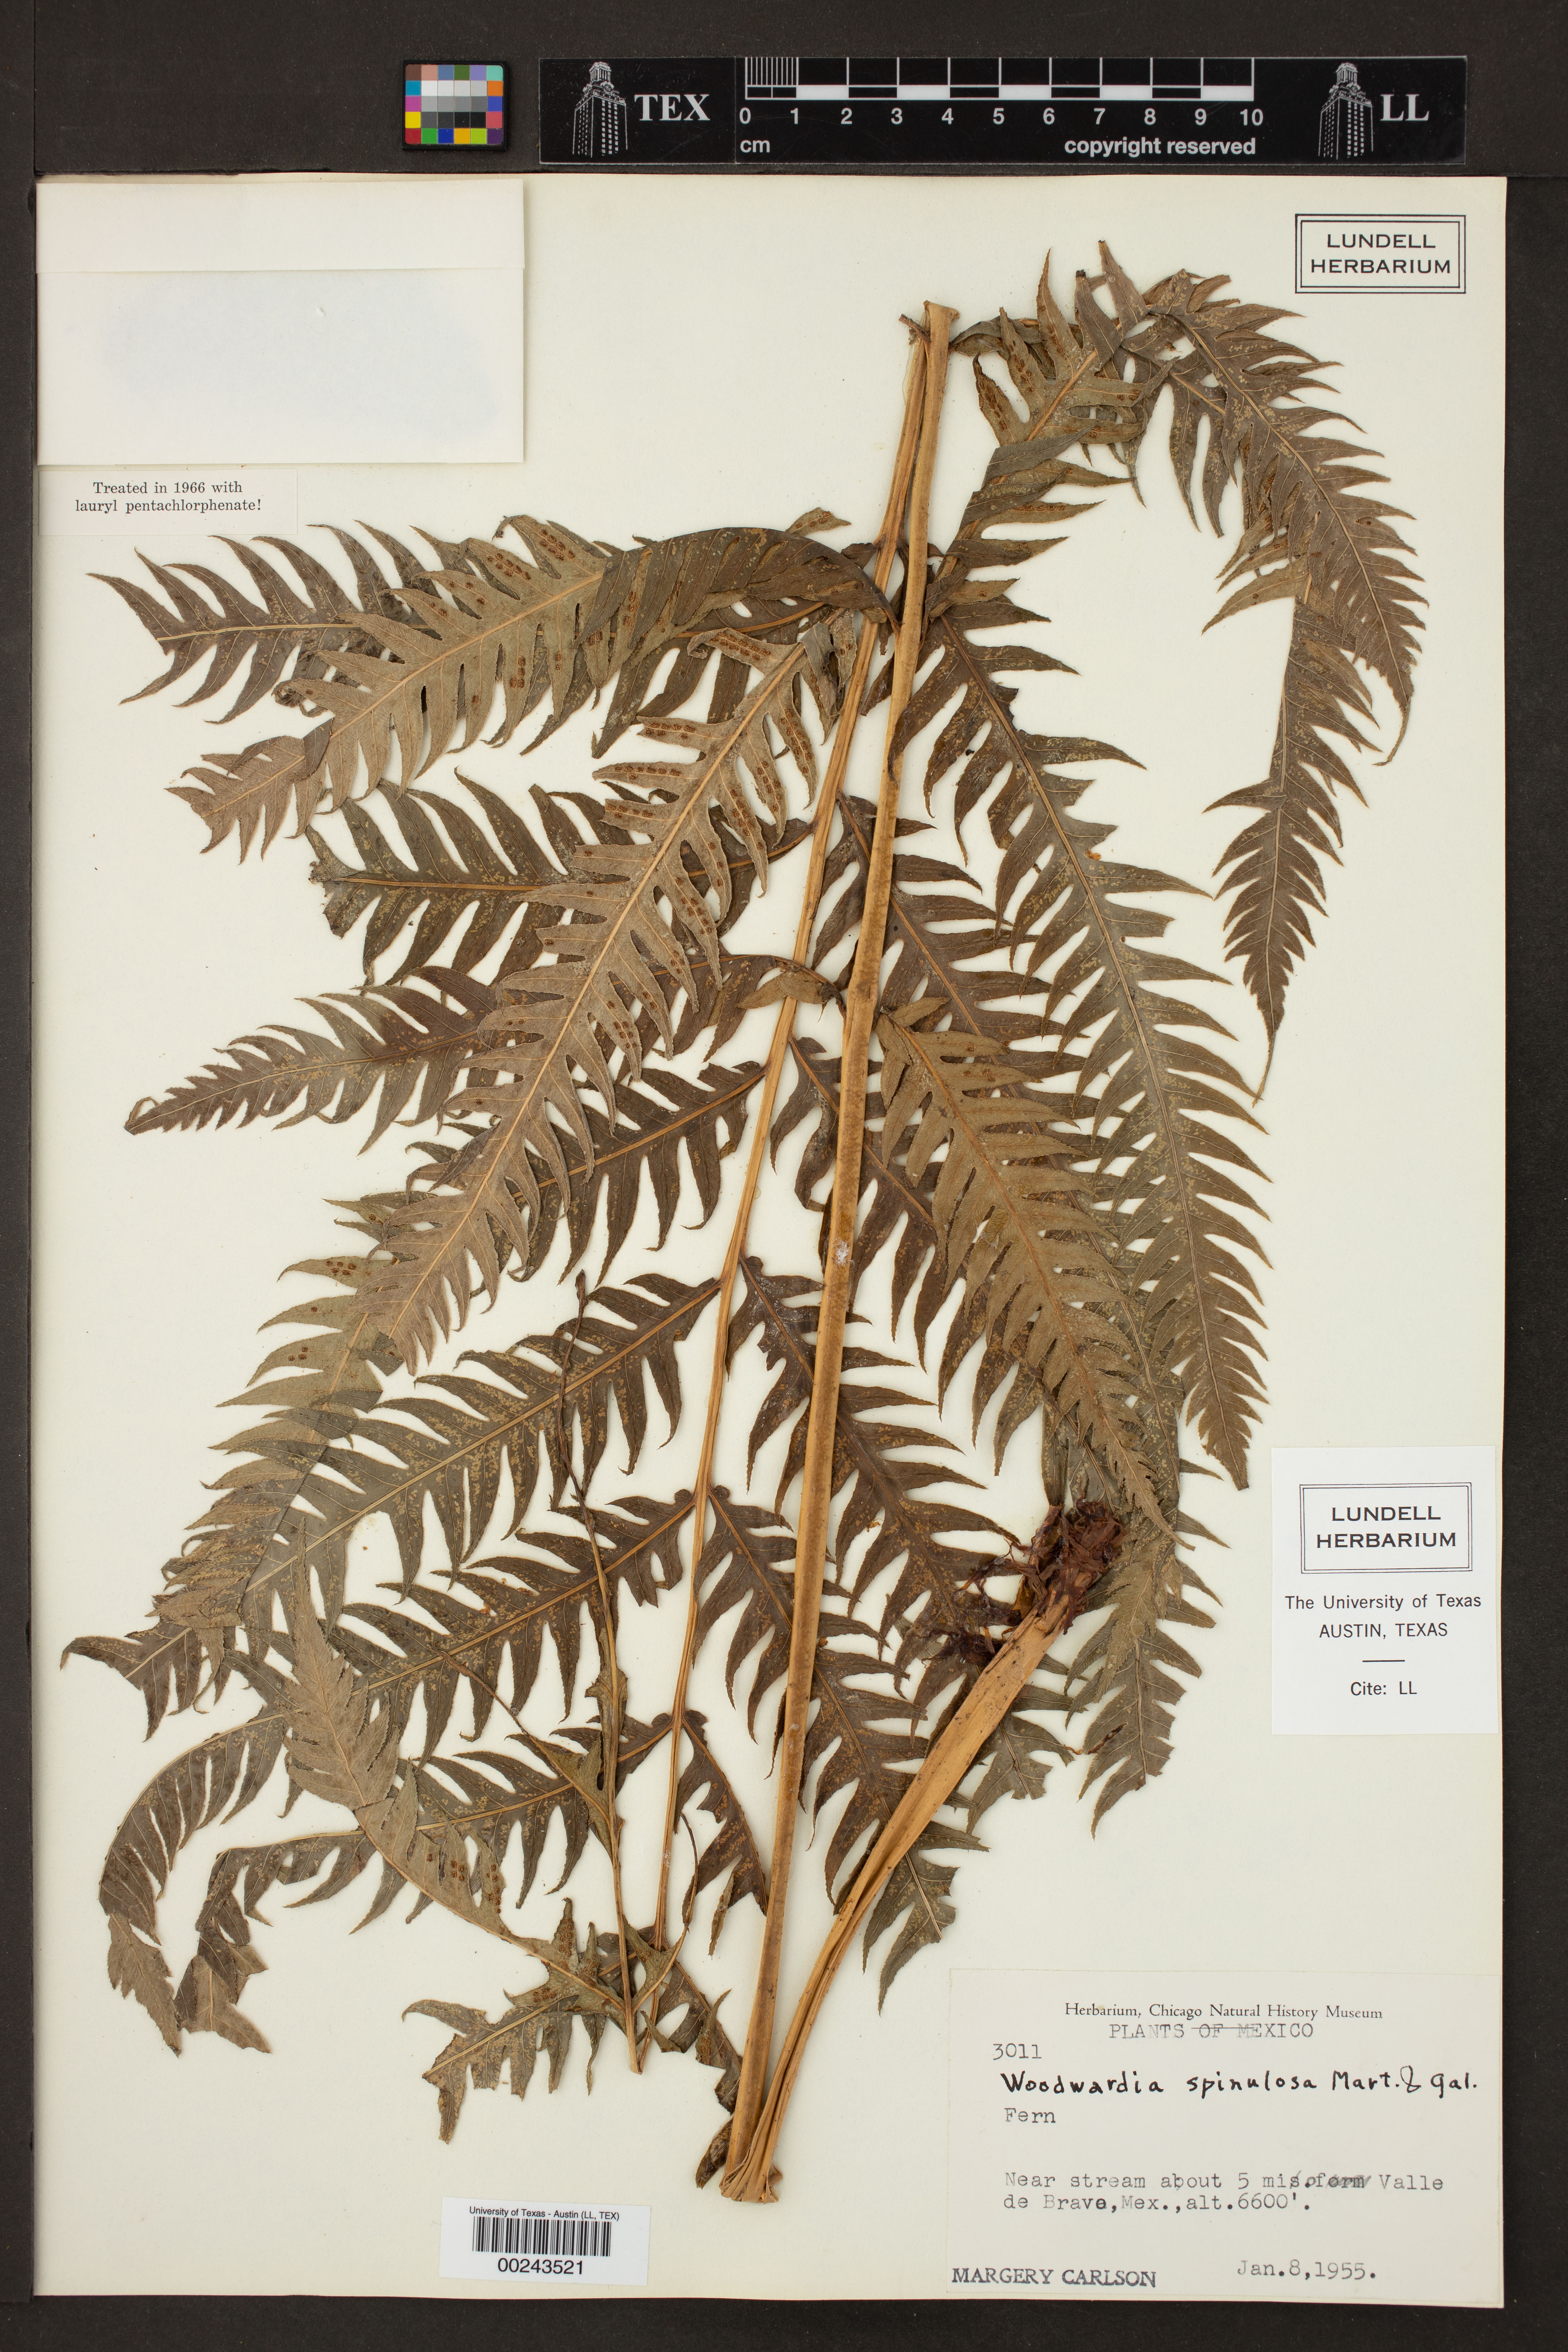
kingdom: Plantae
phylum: Tracheophyta
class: Polypodiopsida
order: Polypodiales
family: Blechnaceae
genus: Woodwardia
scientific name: Woodwardia spinulosa
